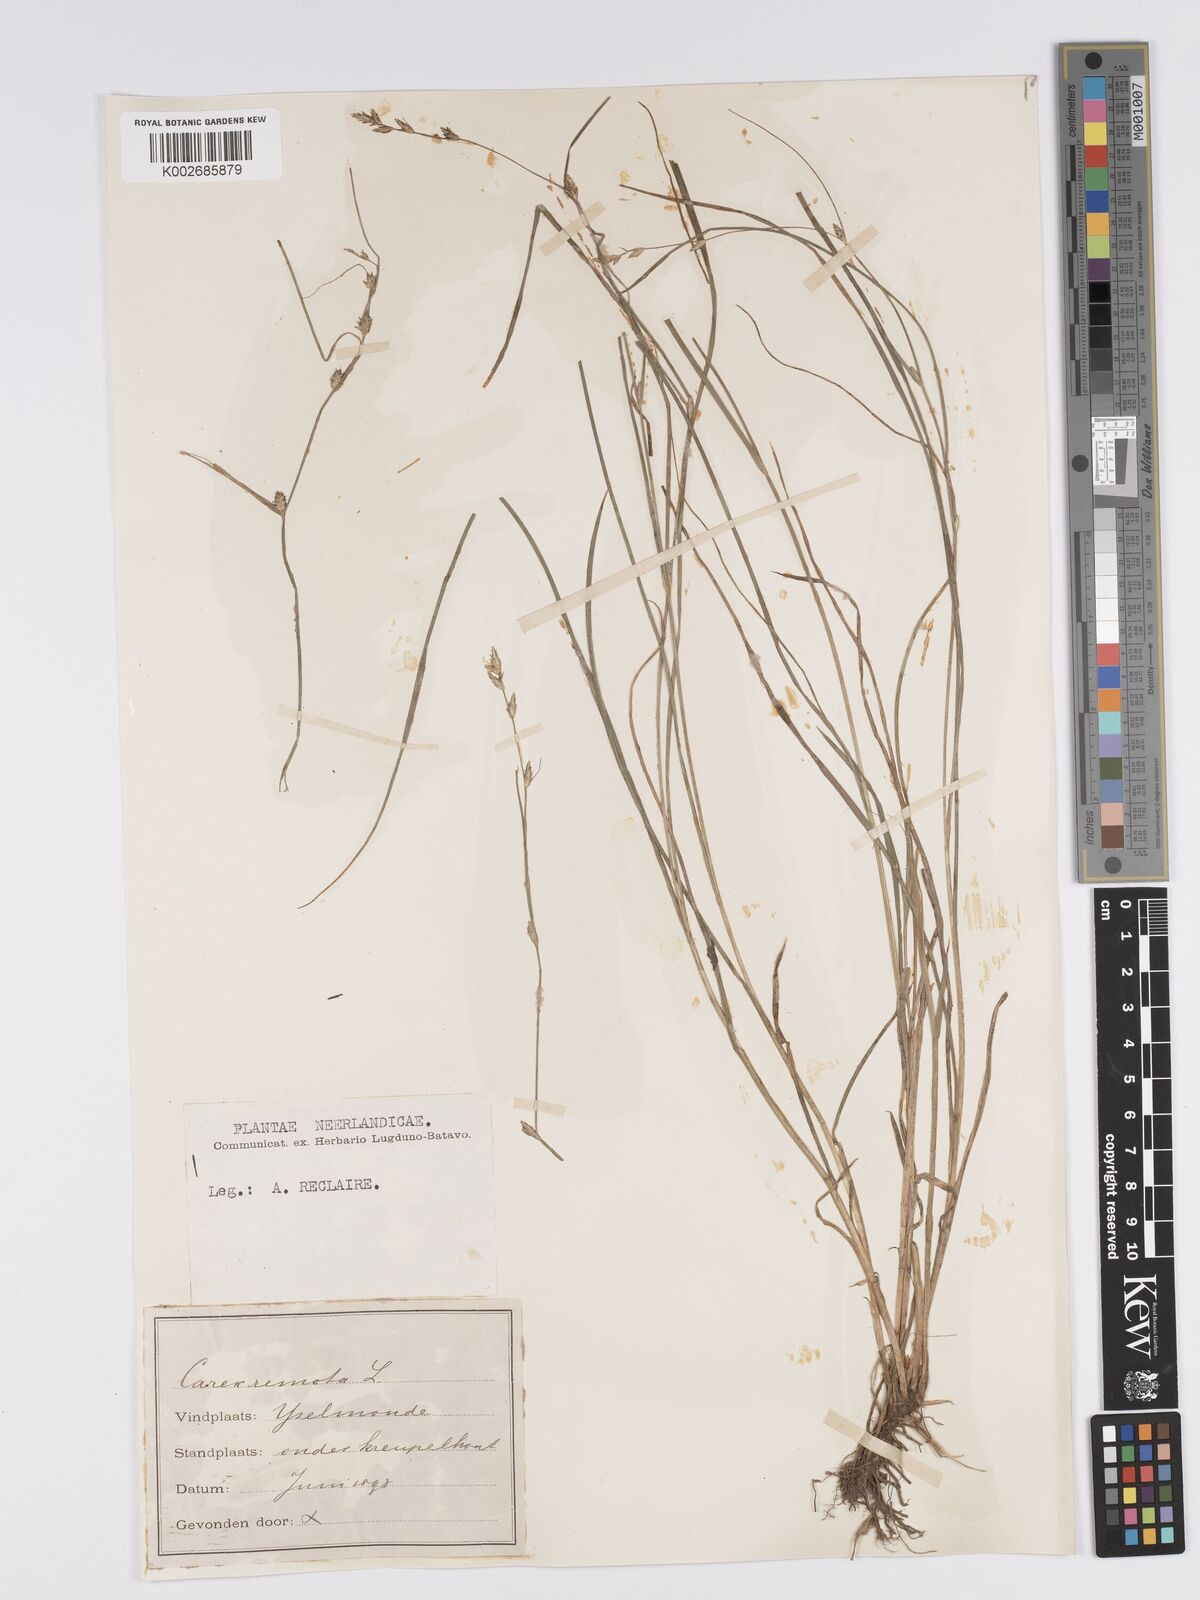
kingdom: Plantae
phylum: Tracheophyta
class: Liliopsida
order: Poales
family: Cyperaceae
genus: Carex
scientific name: Carex remota
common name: Remote sedge
